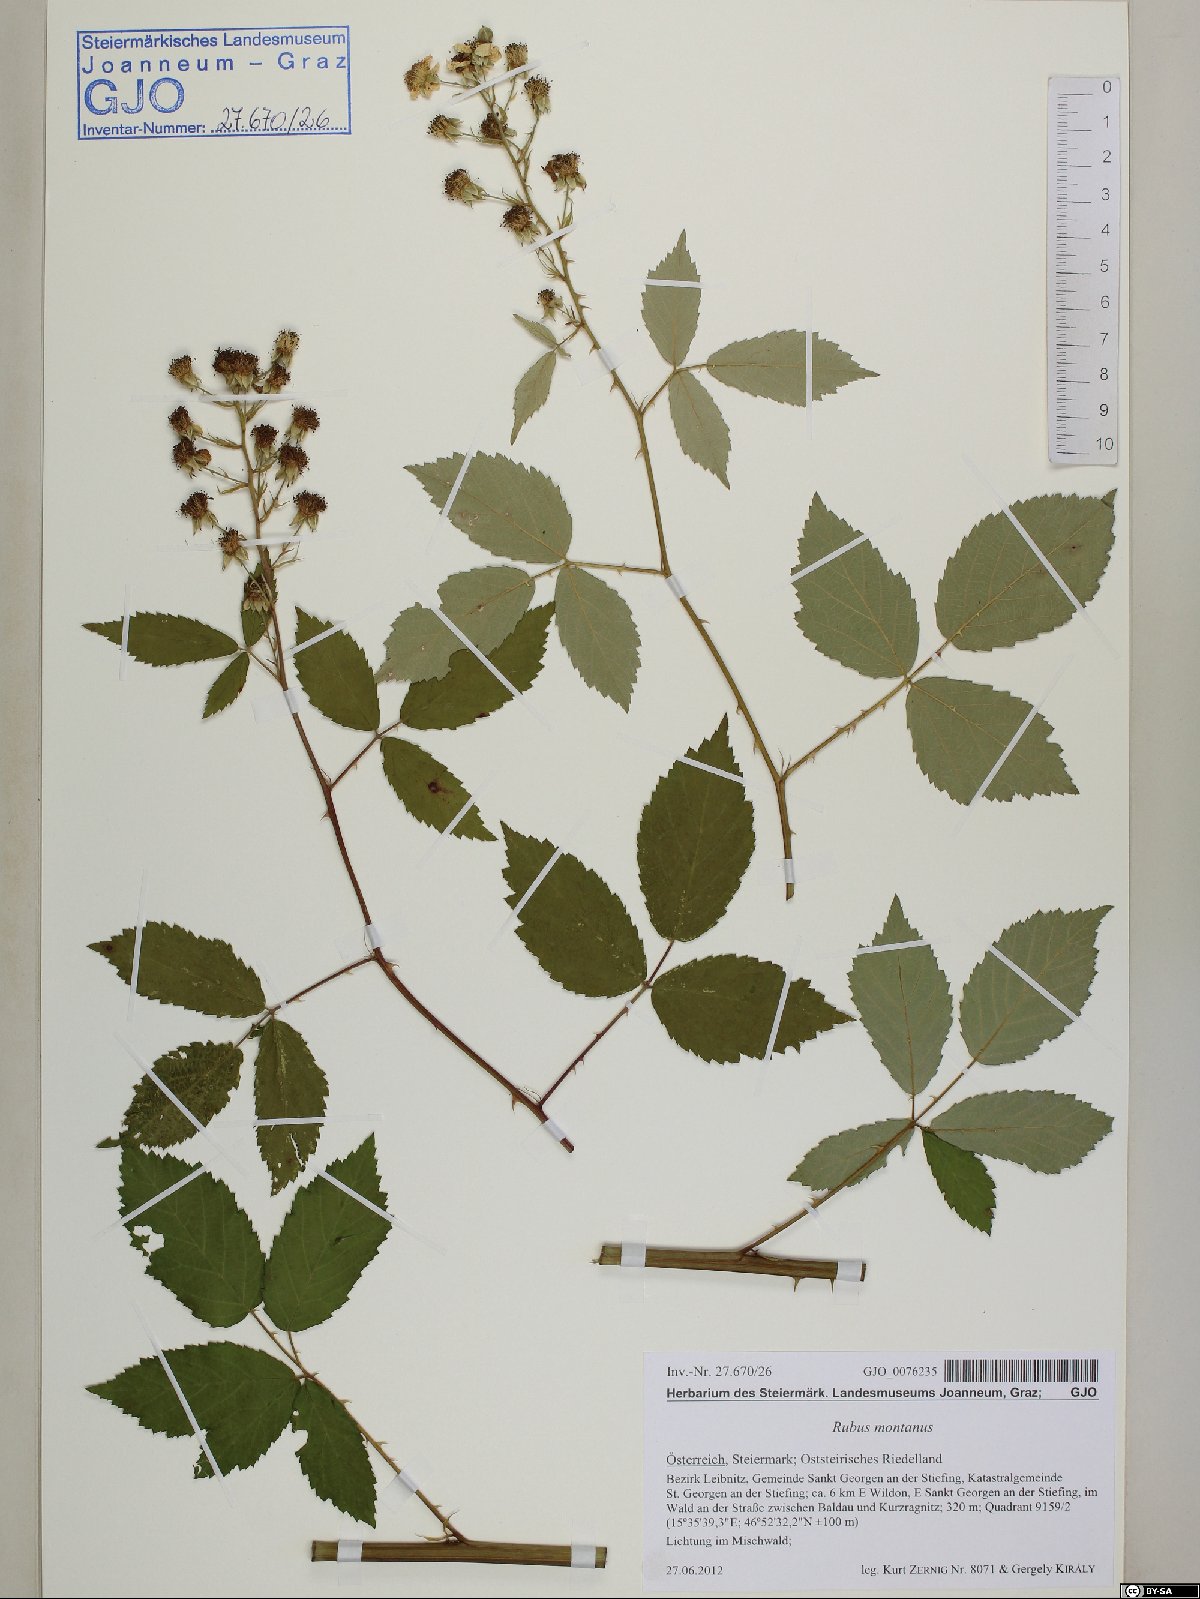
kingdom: Plantae
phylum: Tracheophyta
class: Magnoliopsida
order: Rosales
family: Rosaceae
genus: Rubus
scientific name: Rubus montanus
